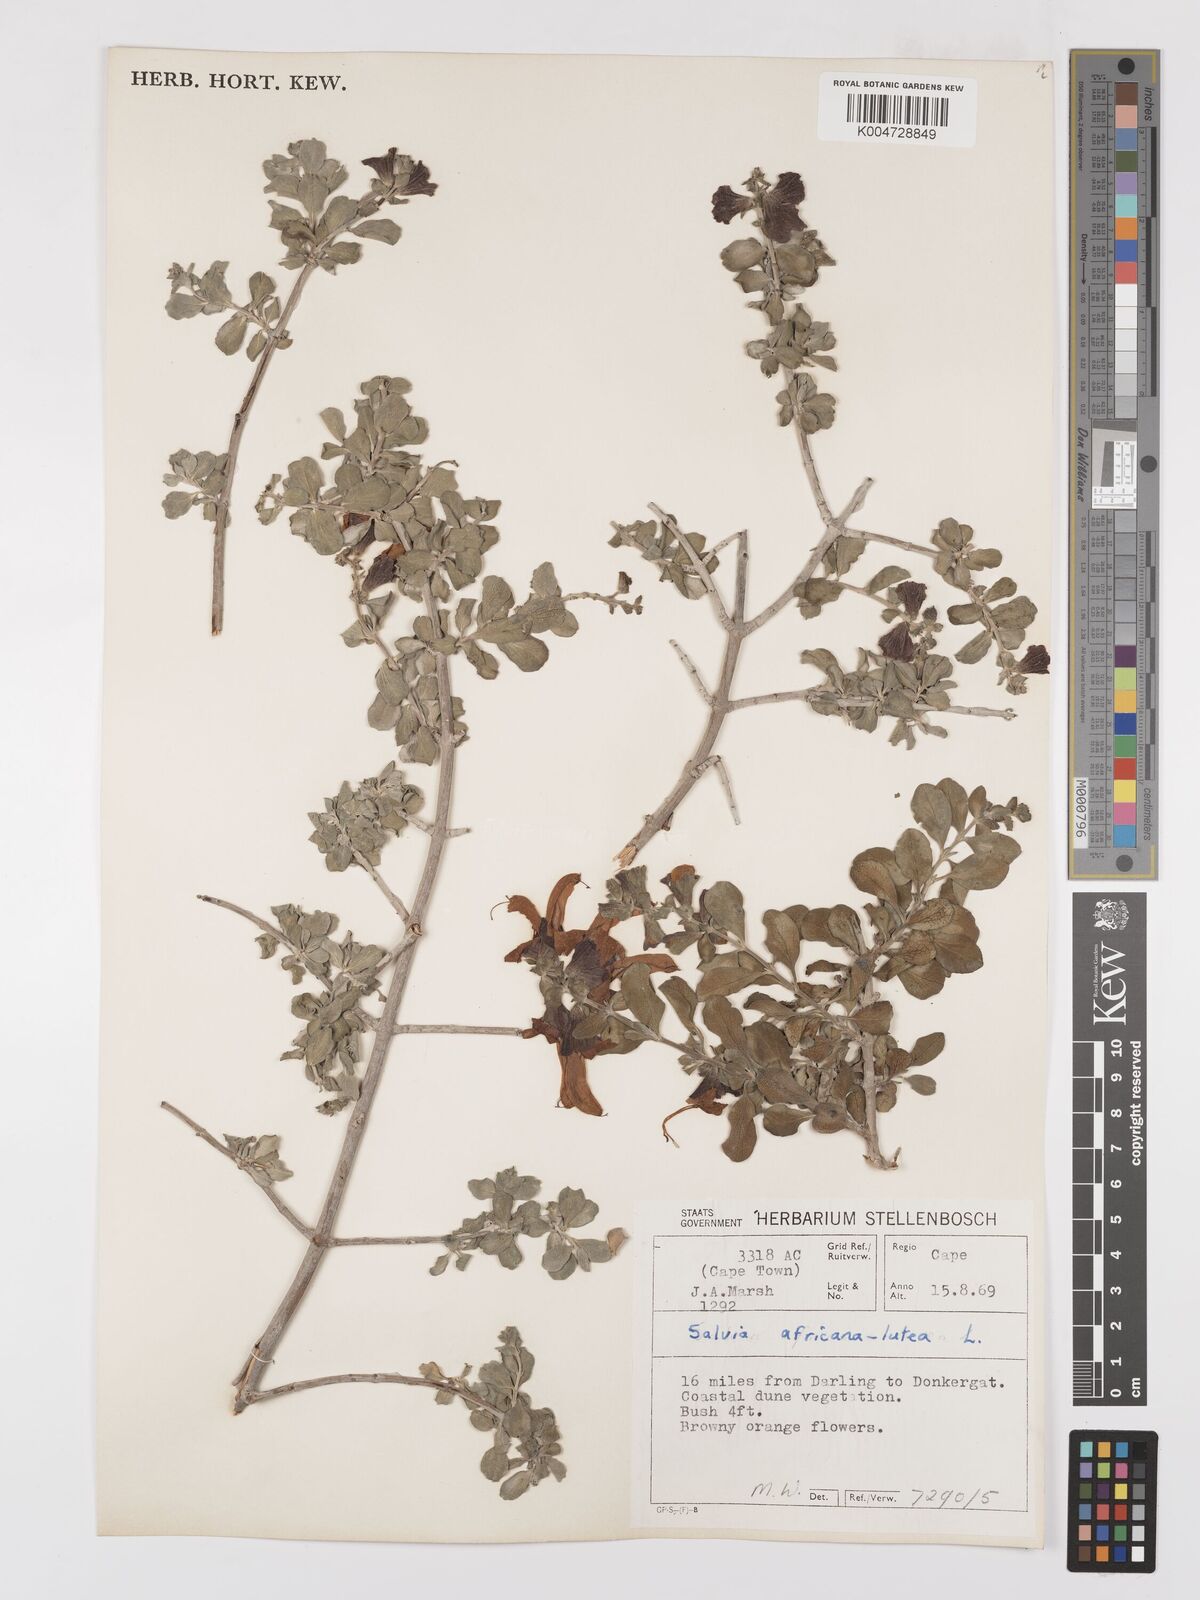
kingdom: Plantae
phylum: Tracheophyta
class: Magnoliopsida
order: Lamiales
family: Lamiaceae
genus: Salvia
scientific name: Salvia aurea
